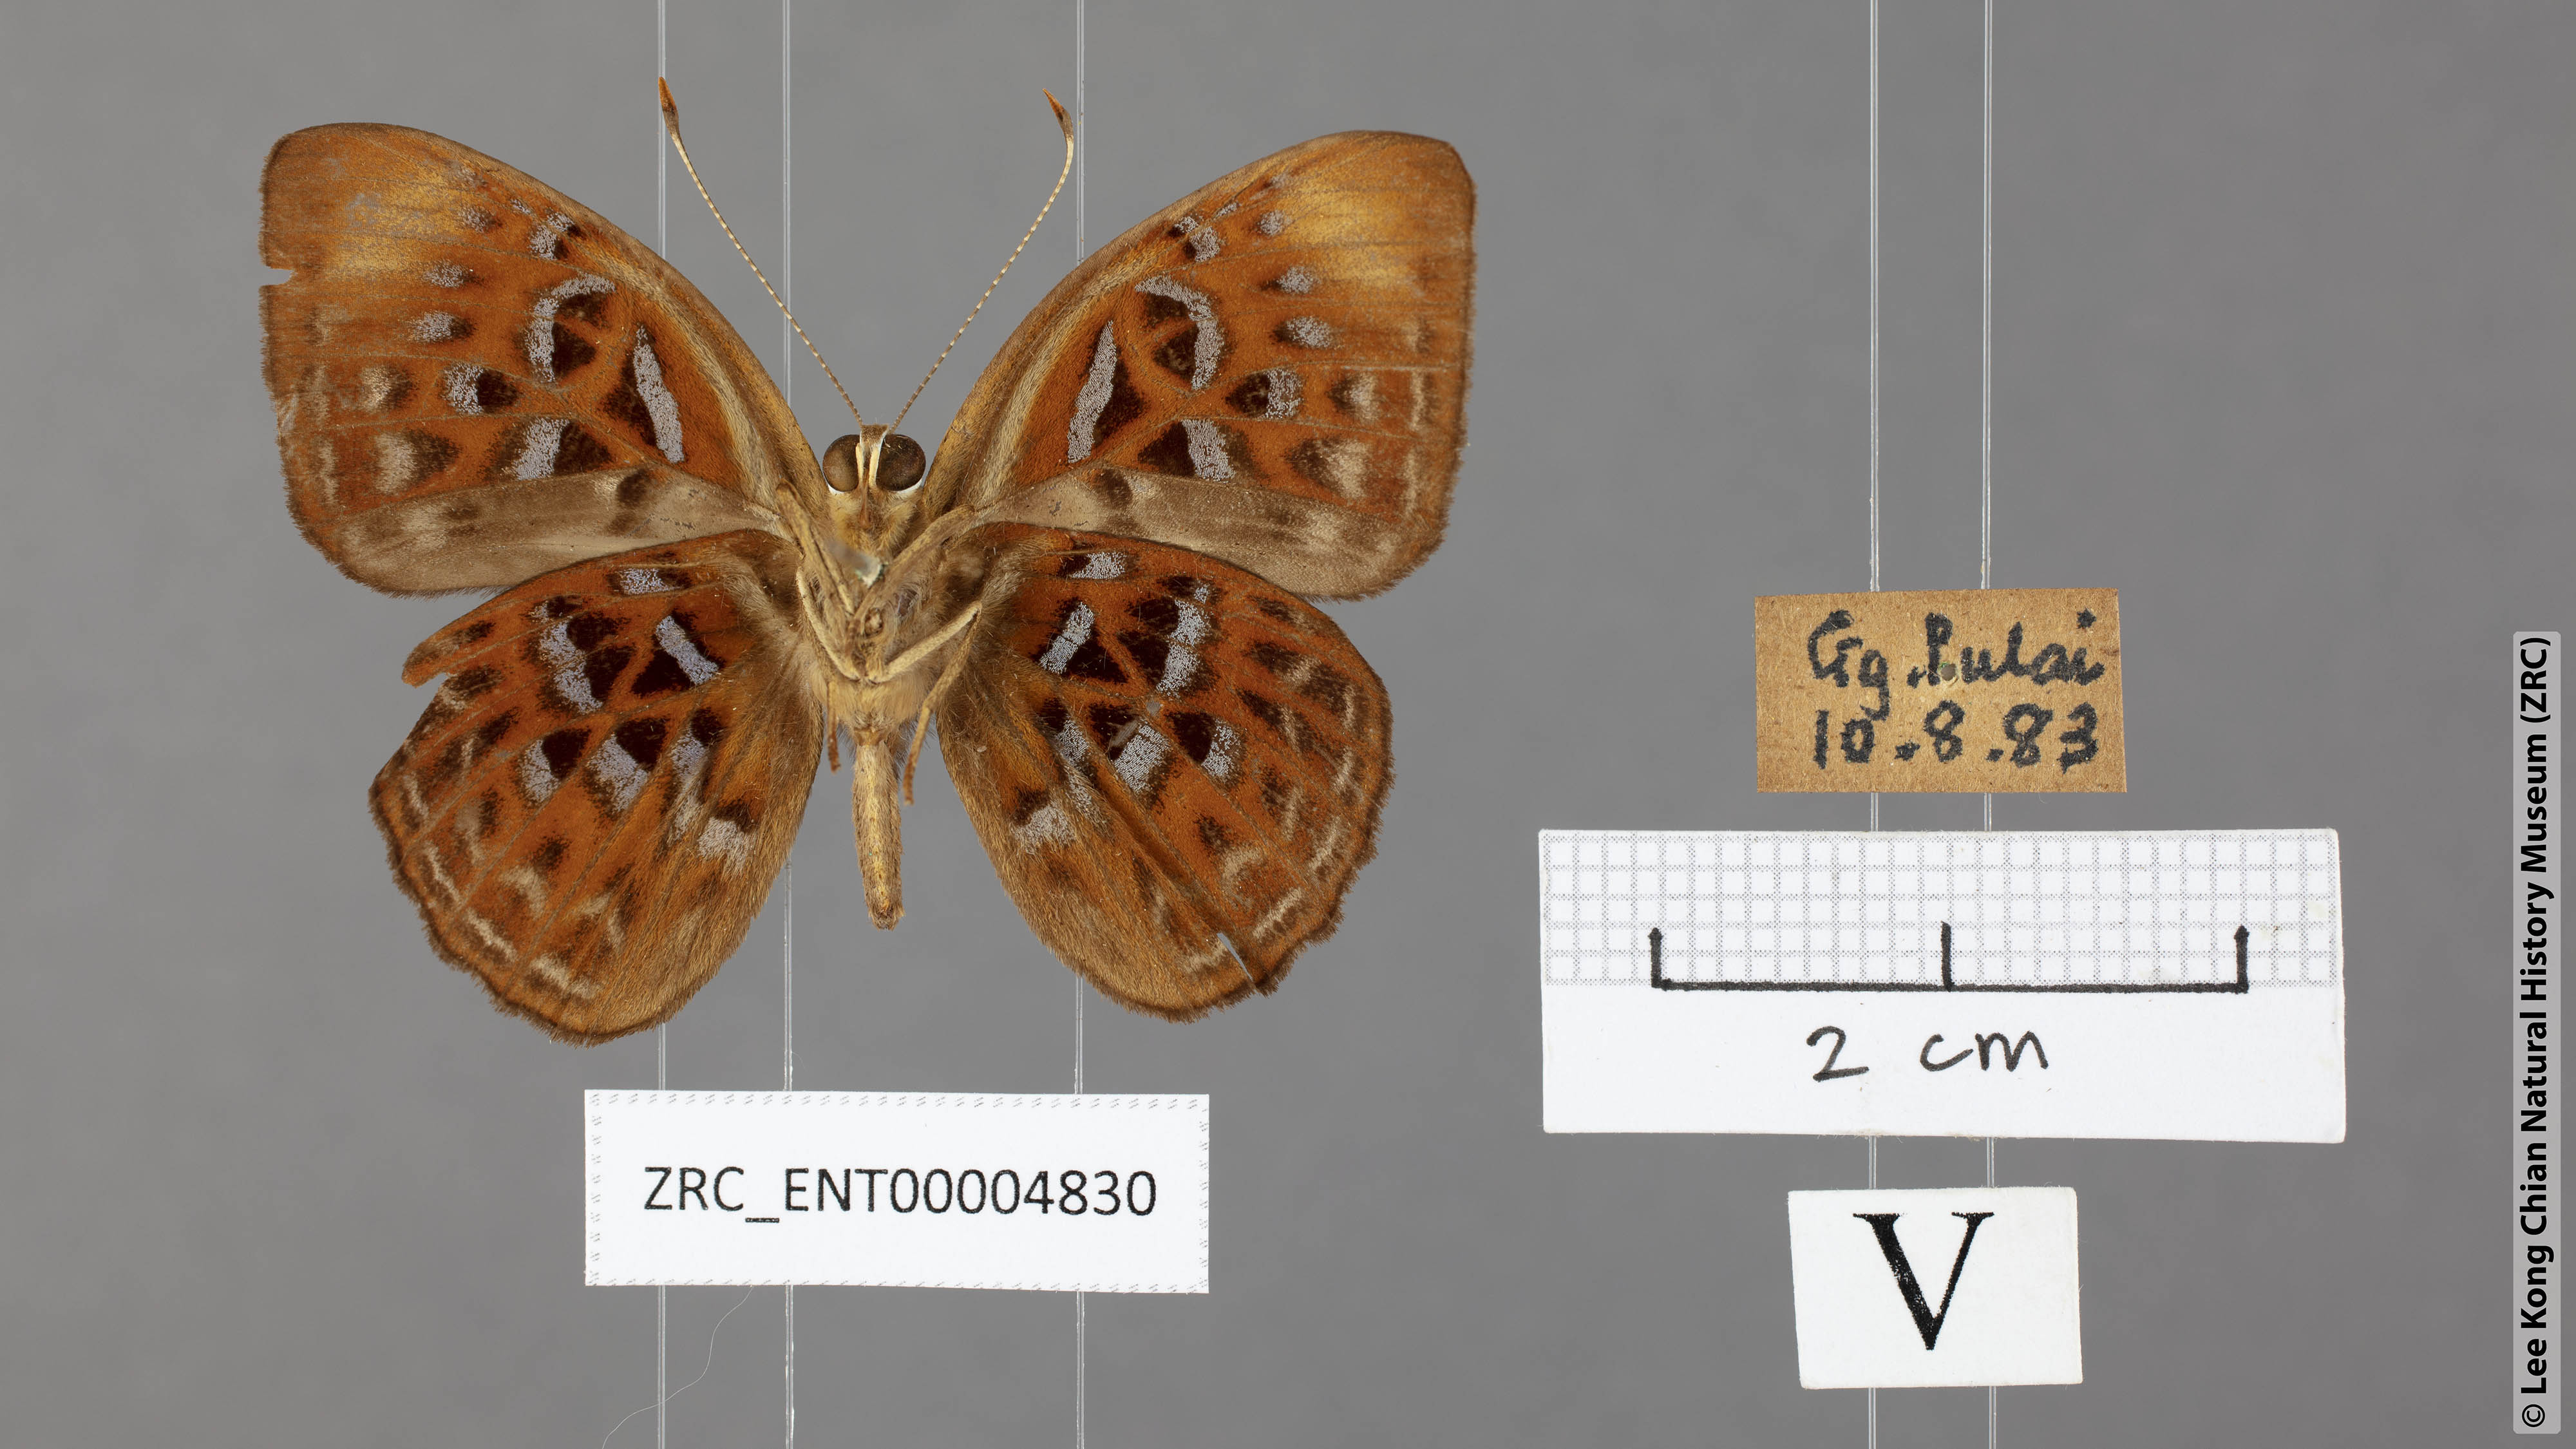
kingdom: Animalia
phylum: Arthropoda
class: Insecta
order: Lepidoptera
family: Erebidae
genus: Dysschema
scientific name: Dysschema
